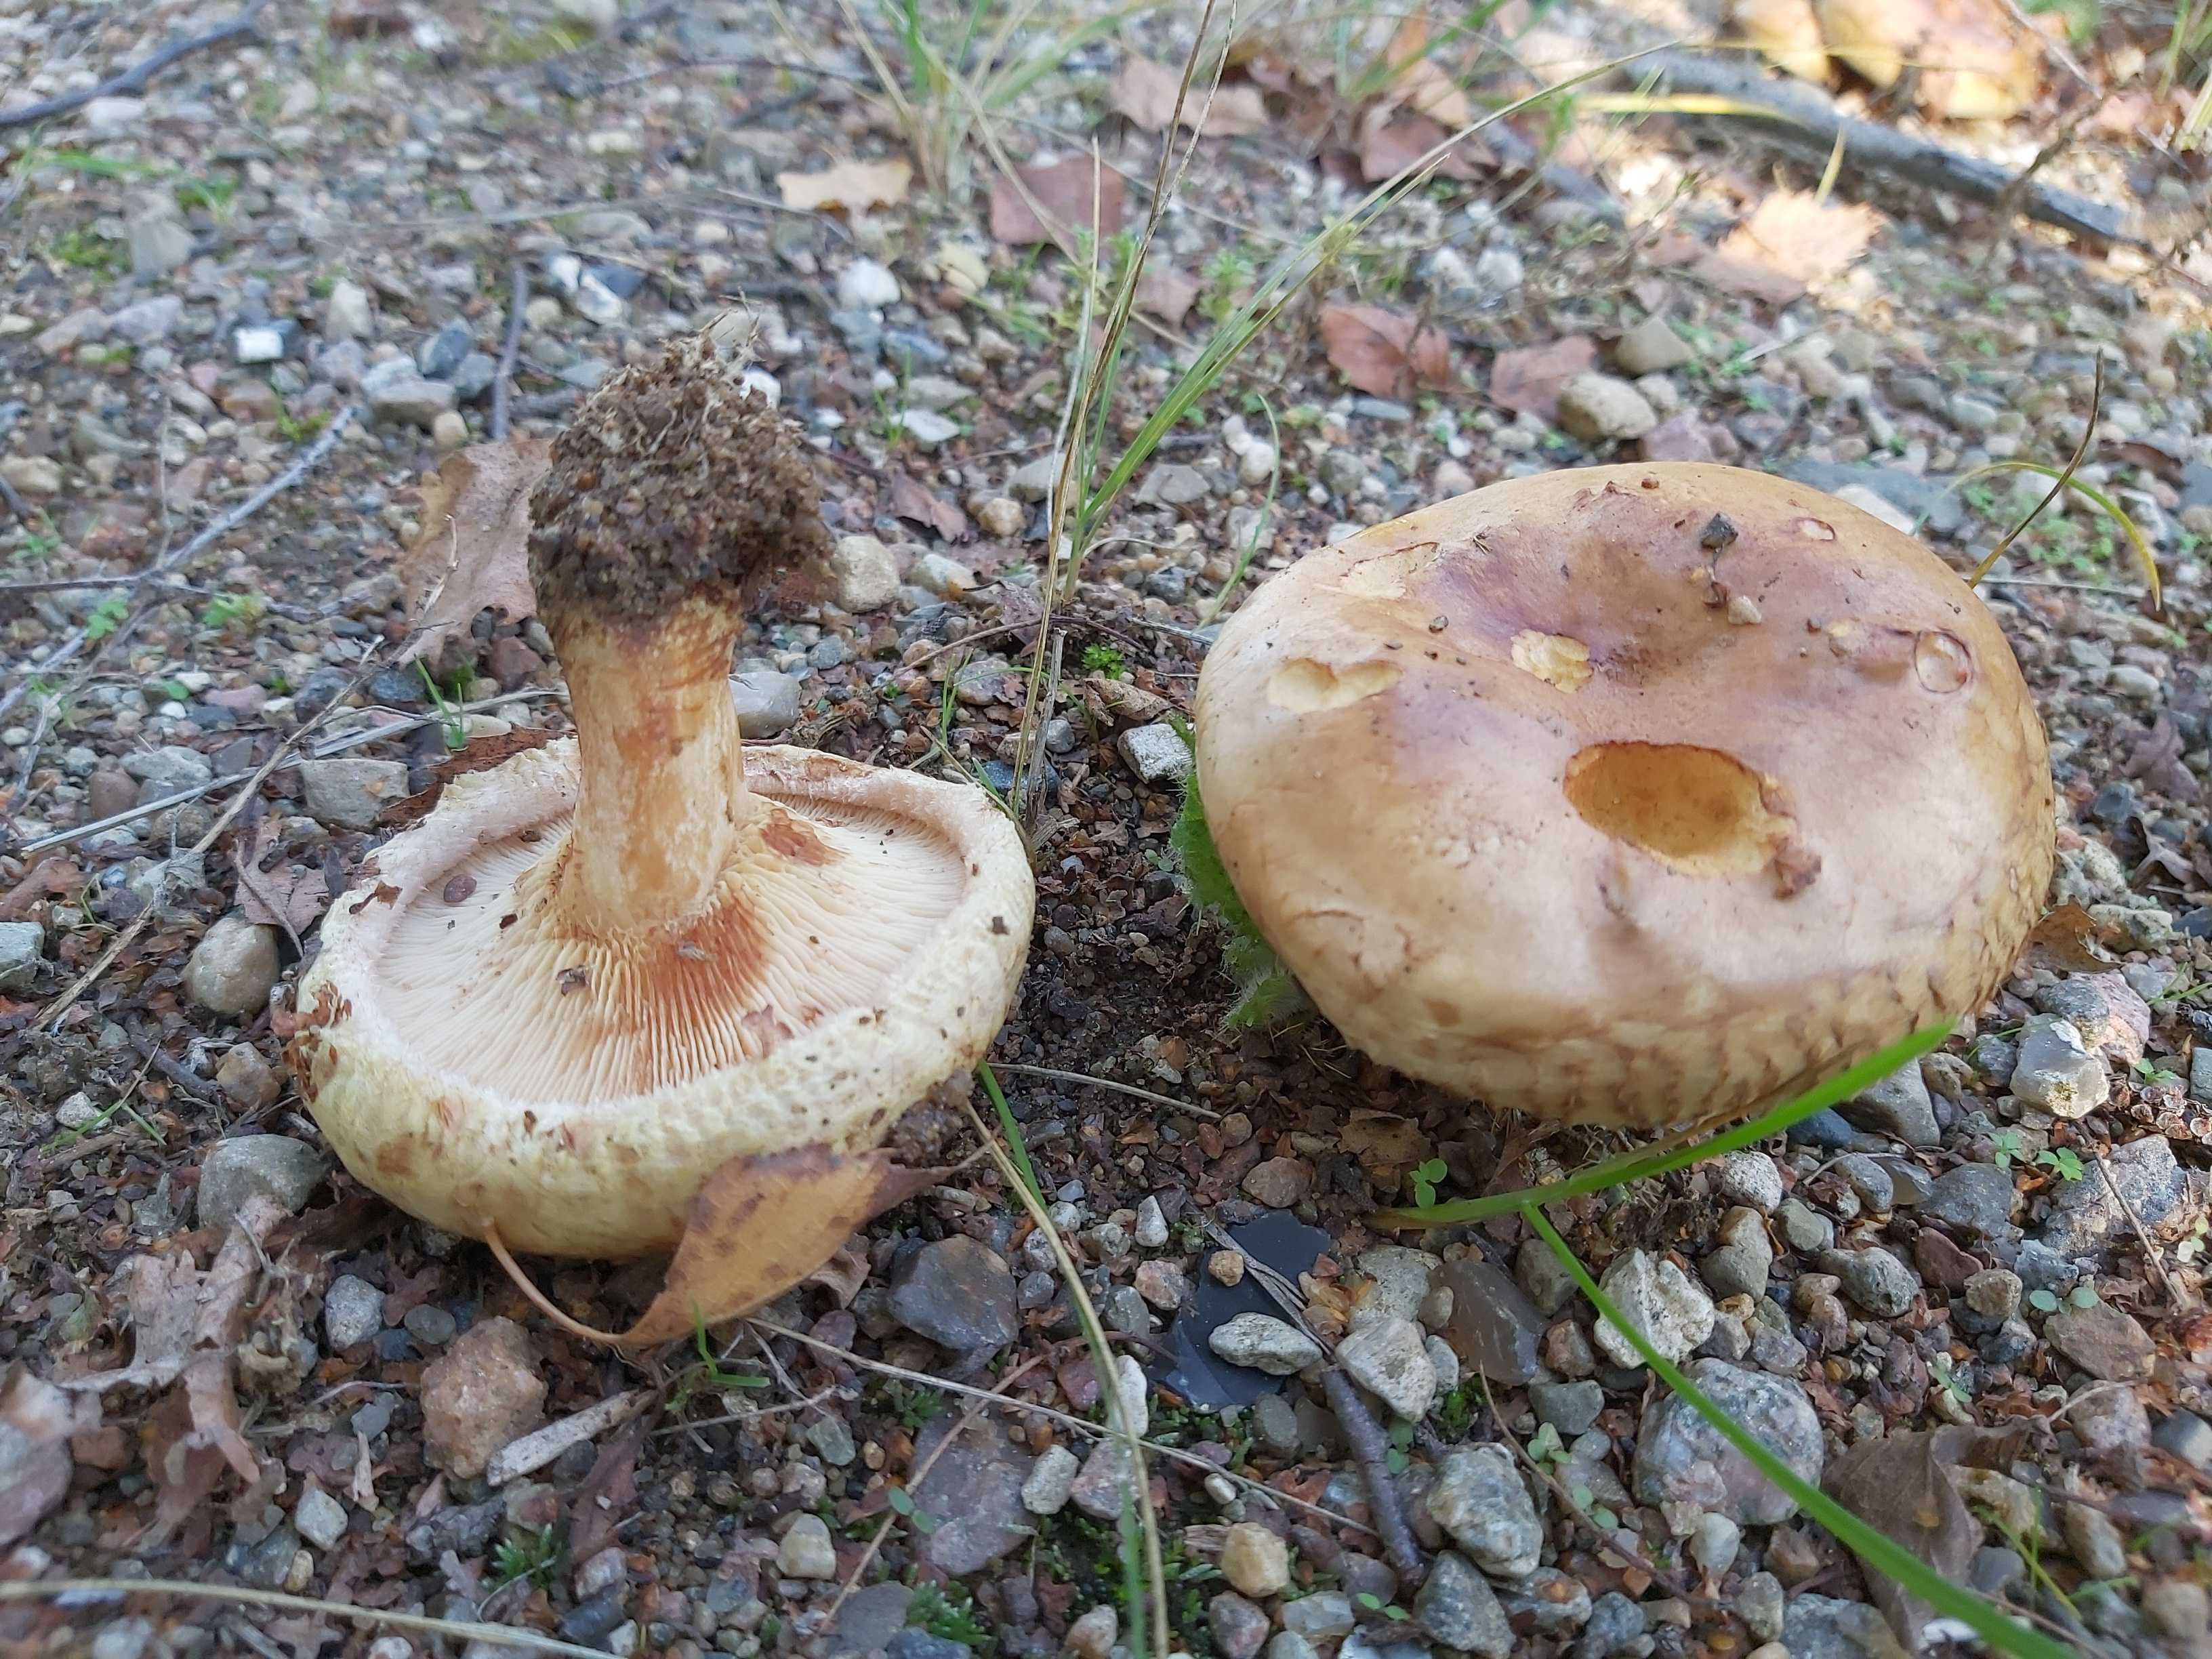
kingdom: Fungi
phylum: Basidiomycota
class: Agaricomycetes
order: Boletales
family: Paxillaceae
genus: Paxillus
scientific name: Paxillus
